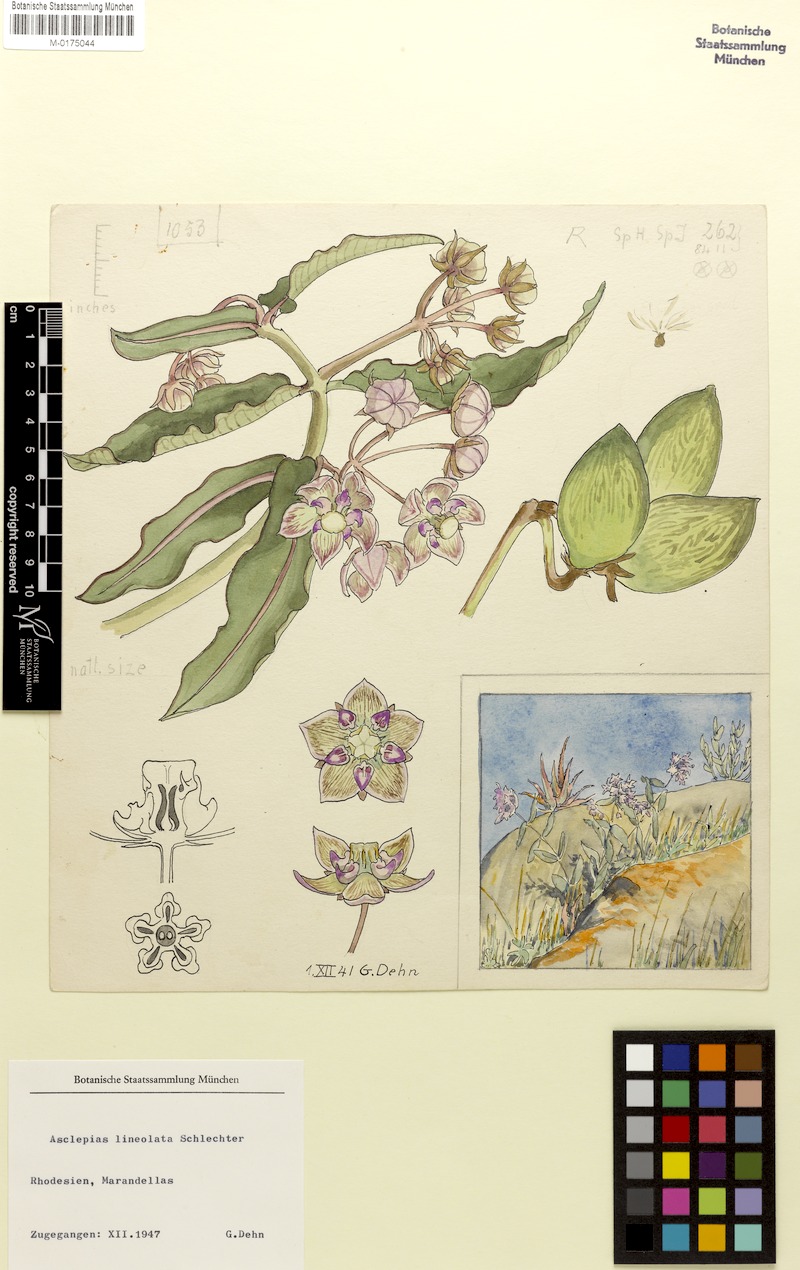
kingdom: Plantae
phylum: Tracheophyta
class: Magnoliopsida
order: Gentianales
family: Apocynaceae
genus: Pachycarpus
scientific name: Pachycarpus lineolatus
